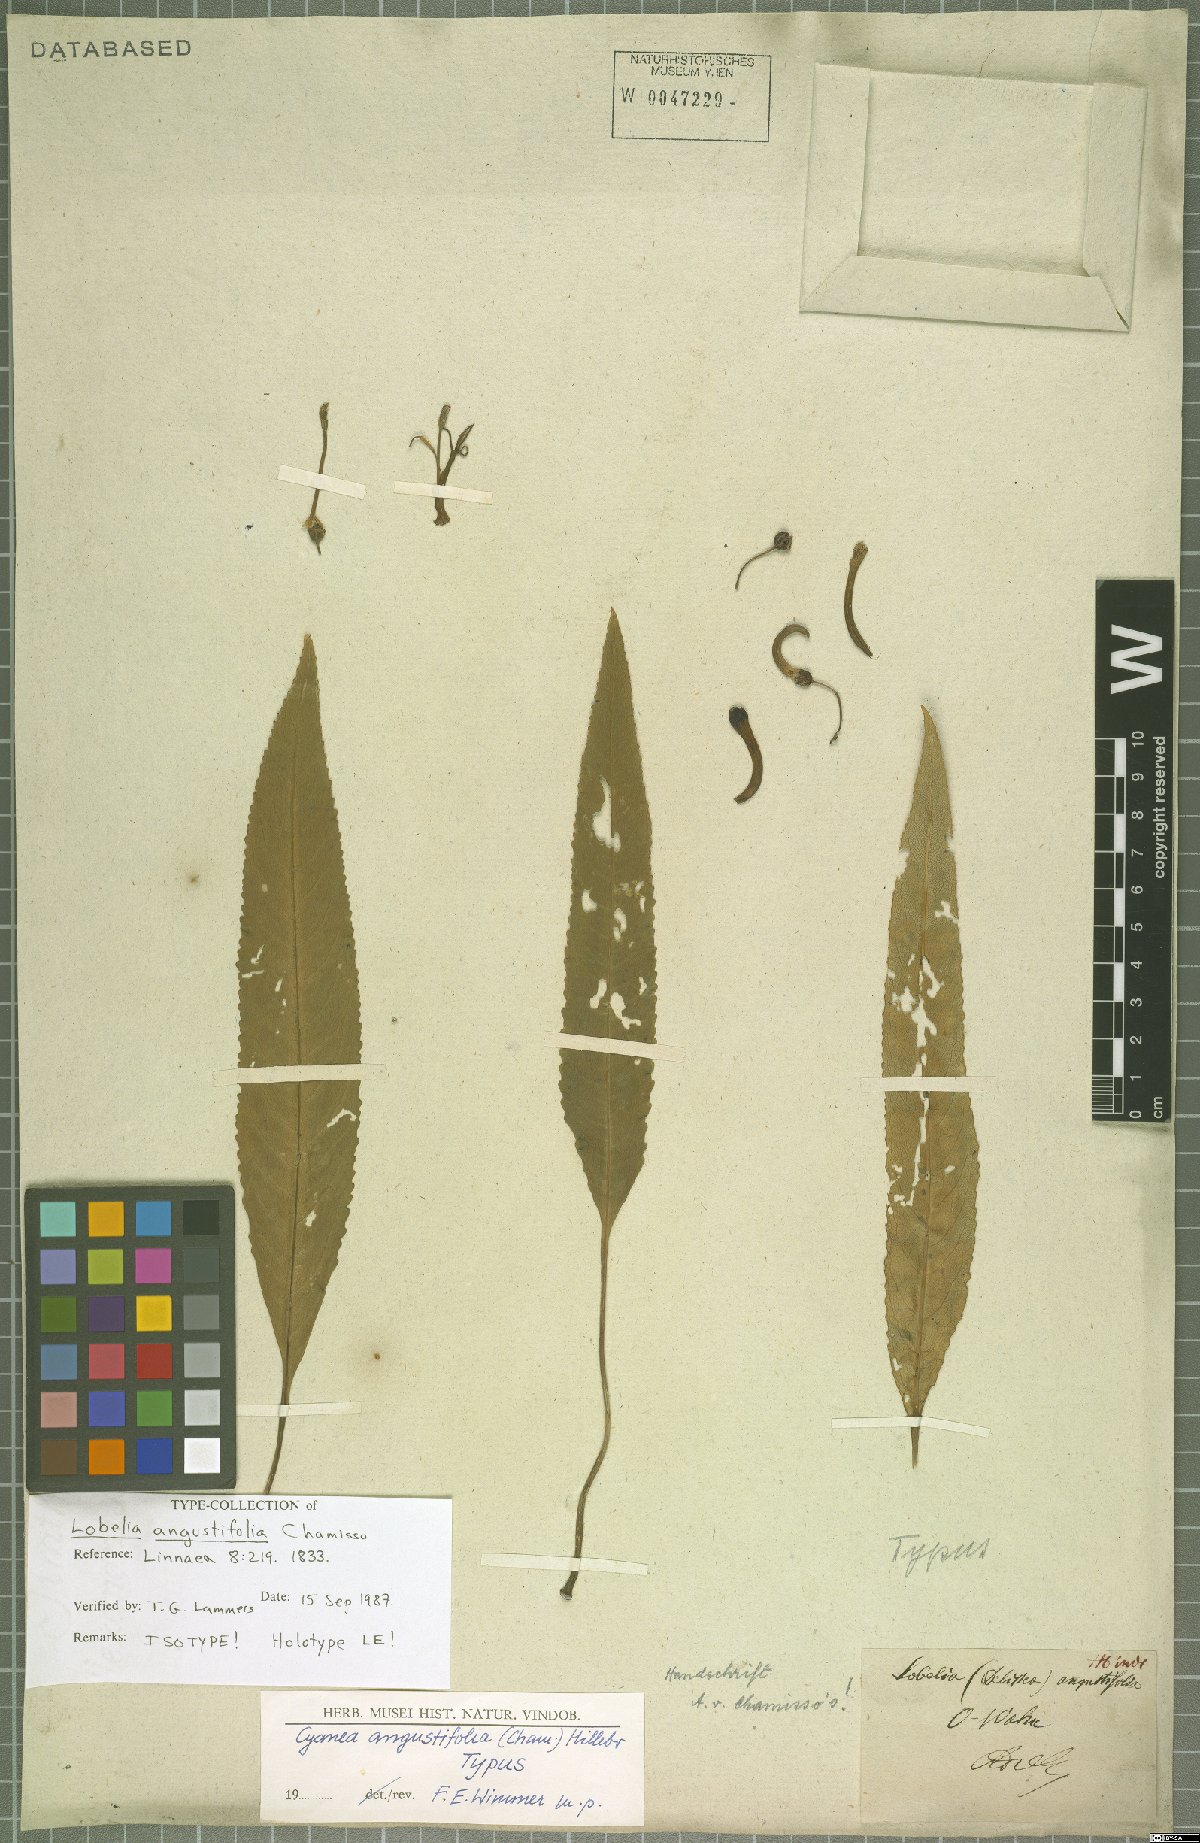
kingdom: Plantae
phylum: Tracheophyta
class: Magnoliopsida
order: Asterales
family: Campanulaceae
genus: Cyanea
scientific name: Cyanea angustifolia
